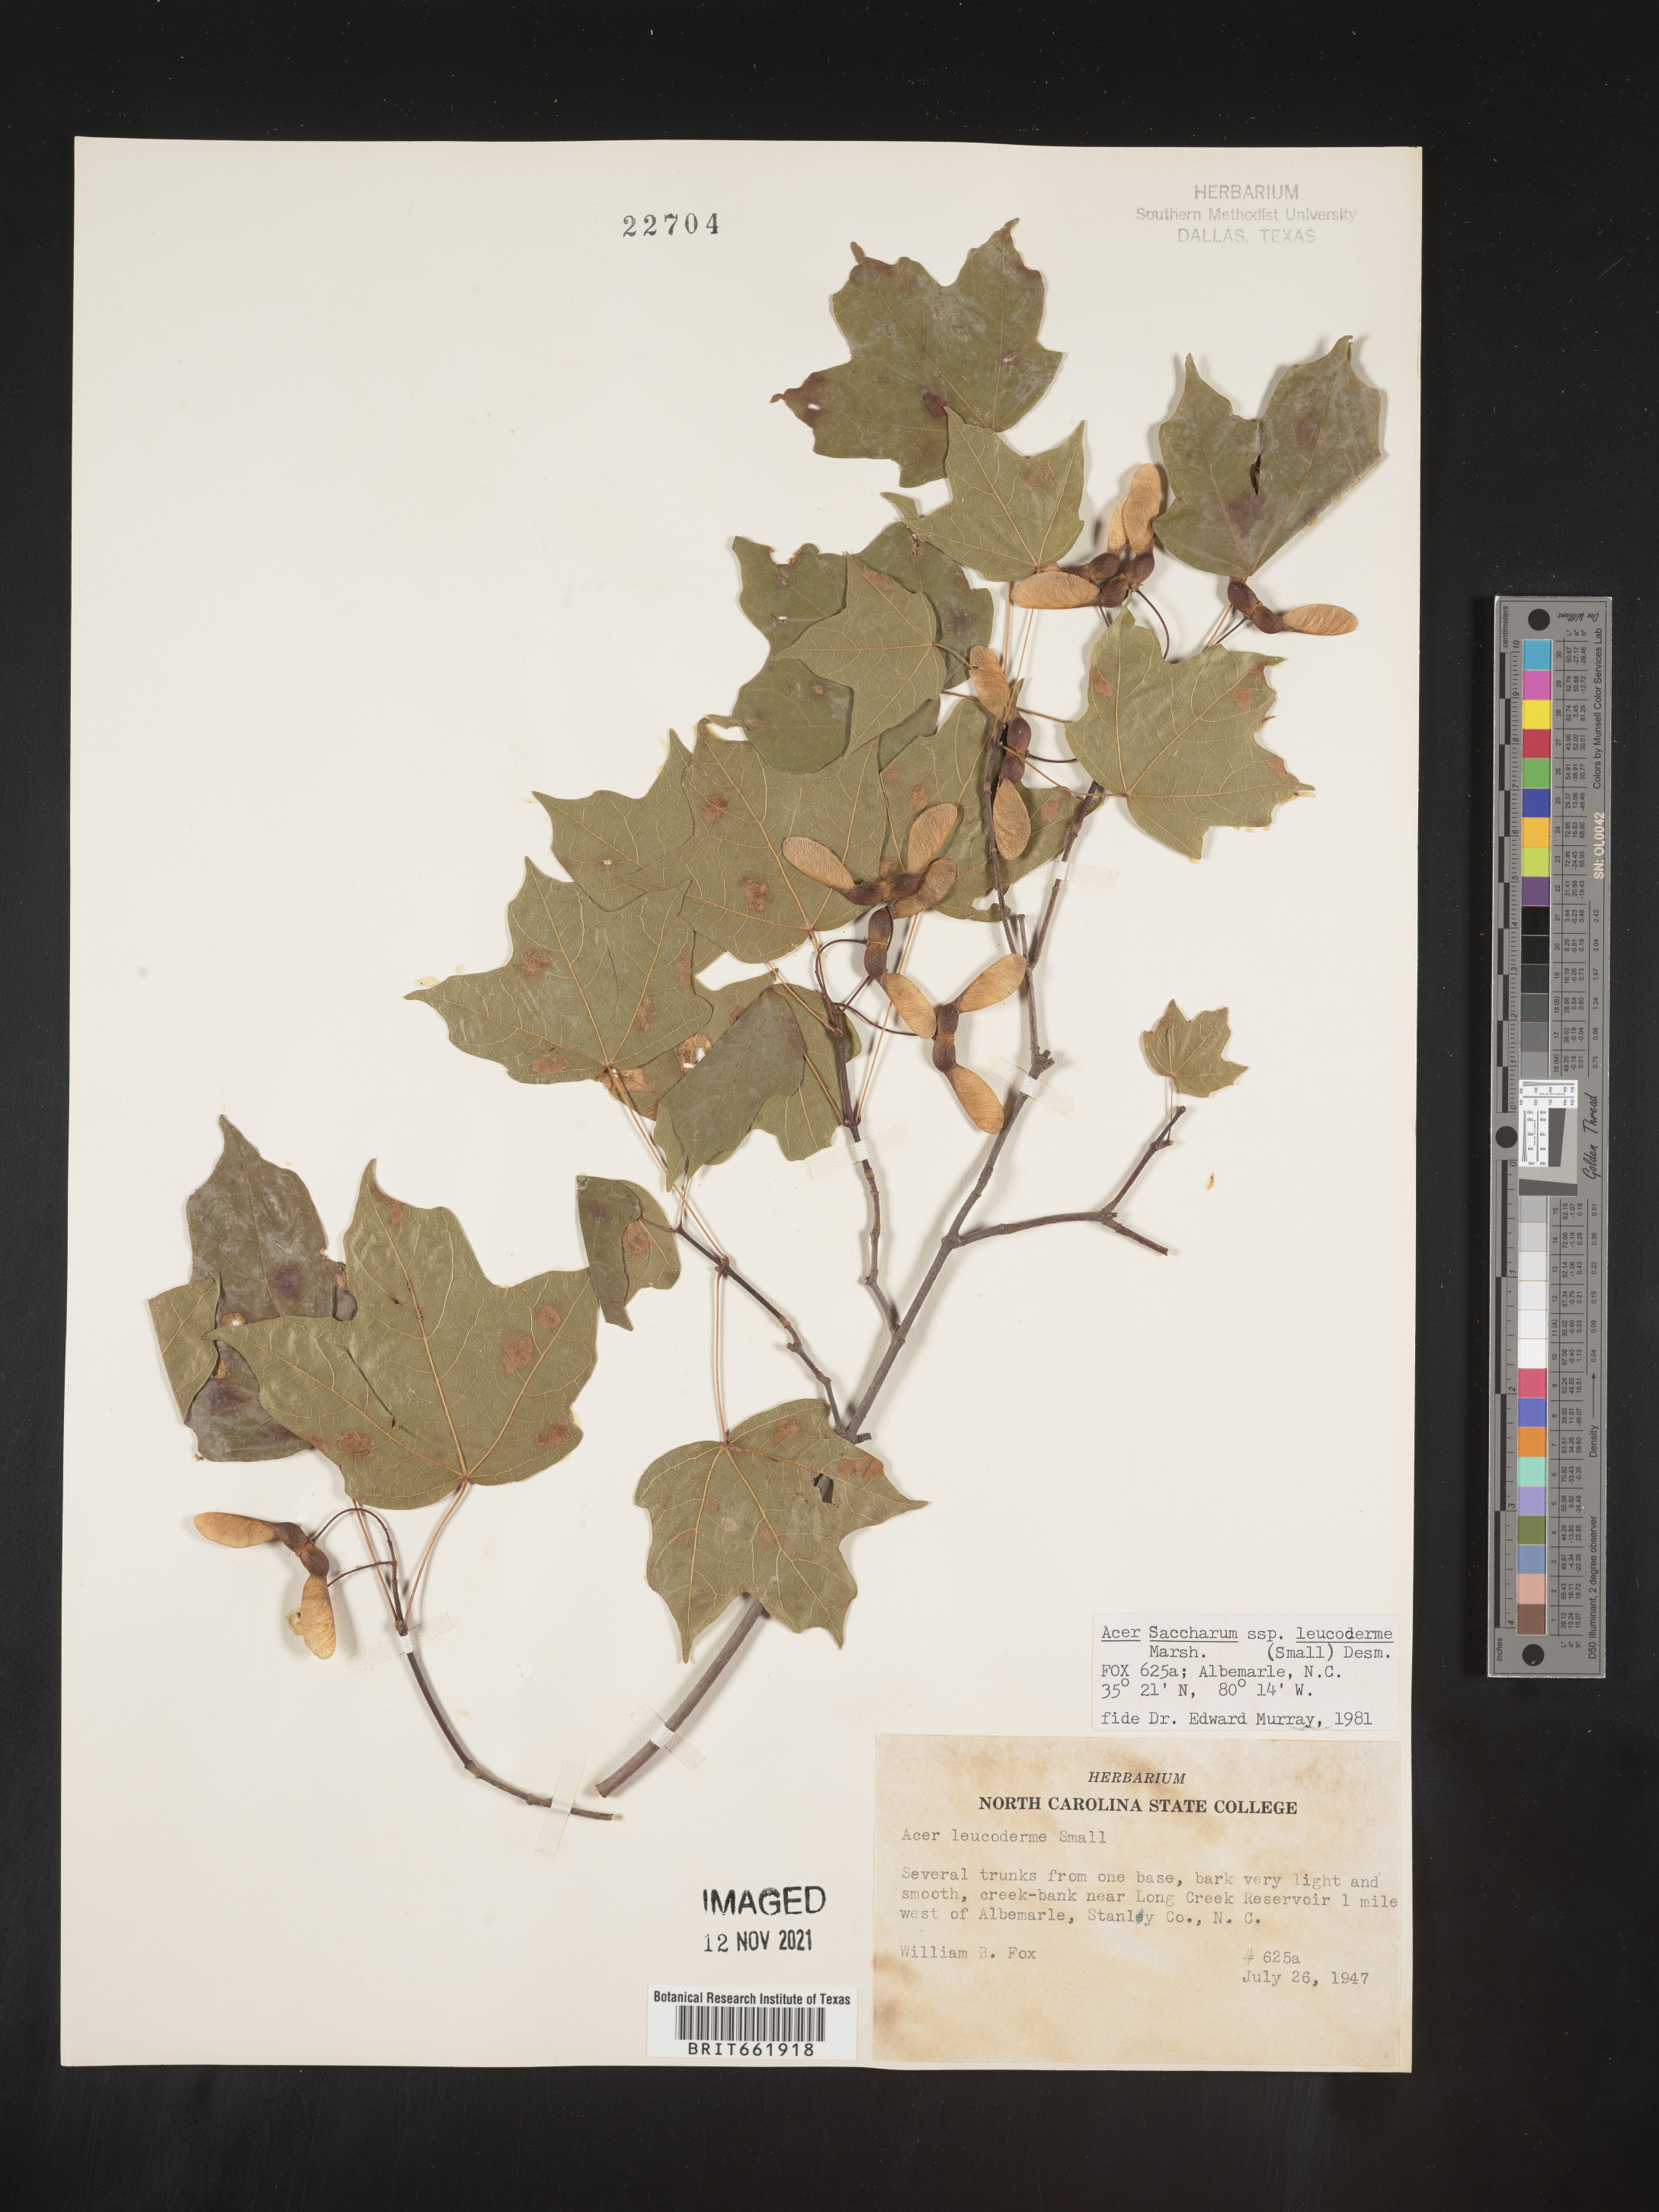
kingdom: Plantae
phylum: Tracheophyta
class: Magnoliopsida
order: Sapindales
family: Sapindaceae
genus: Acer
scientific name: Acer leucoderme
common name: Chalk maple
